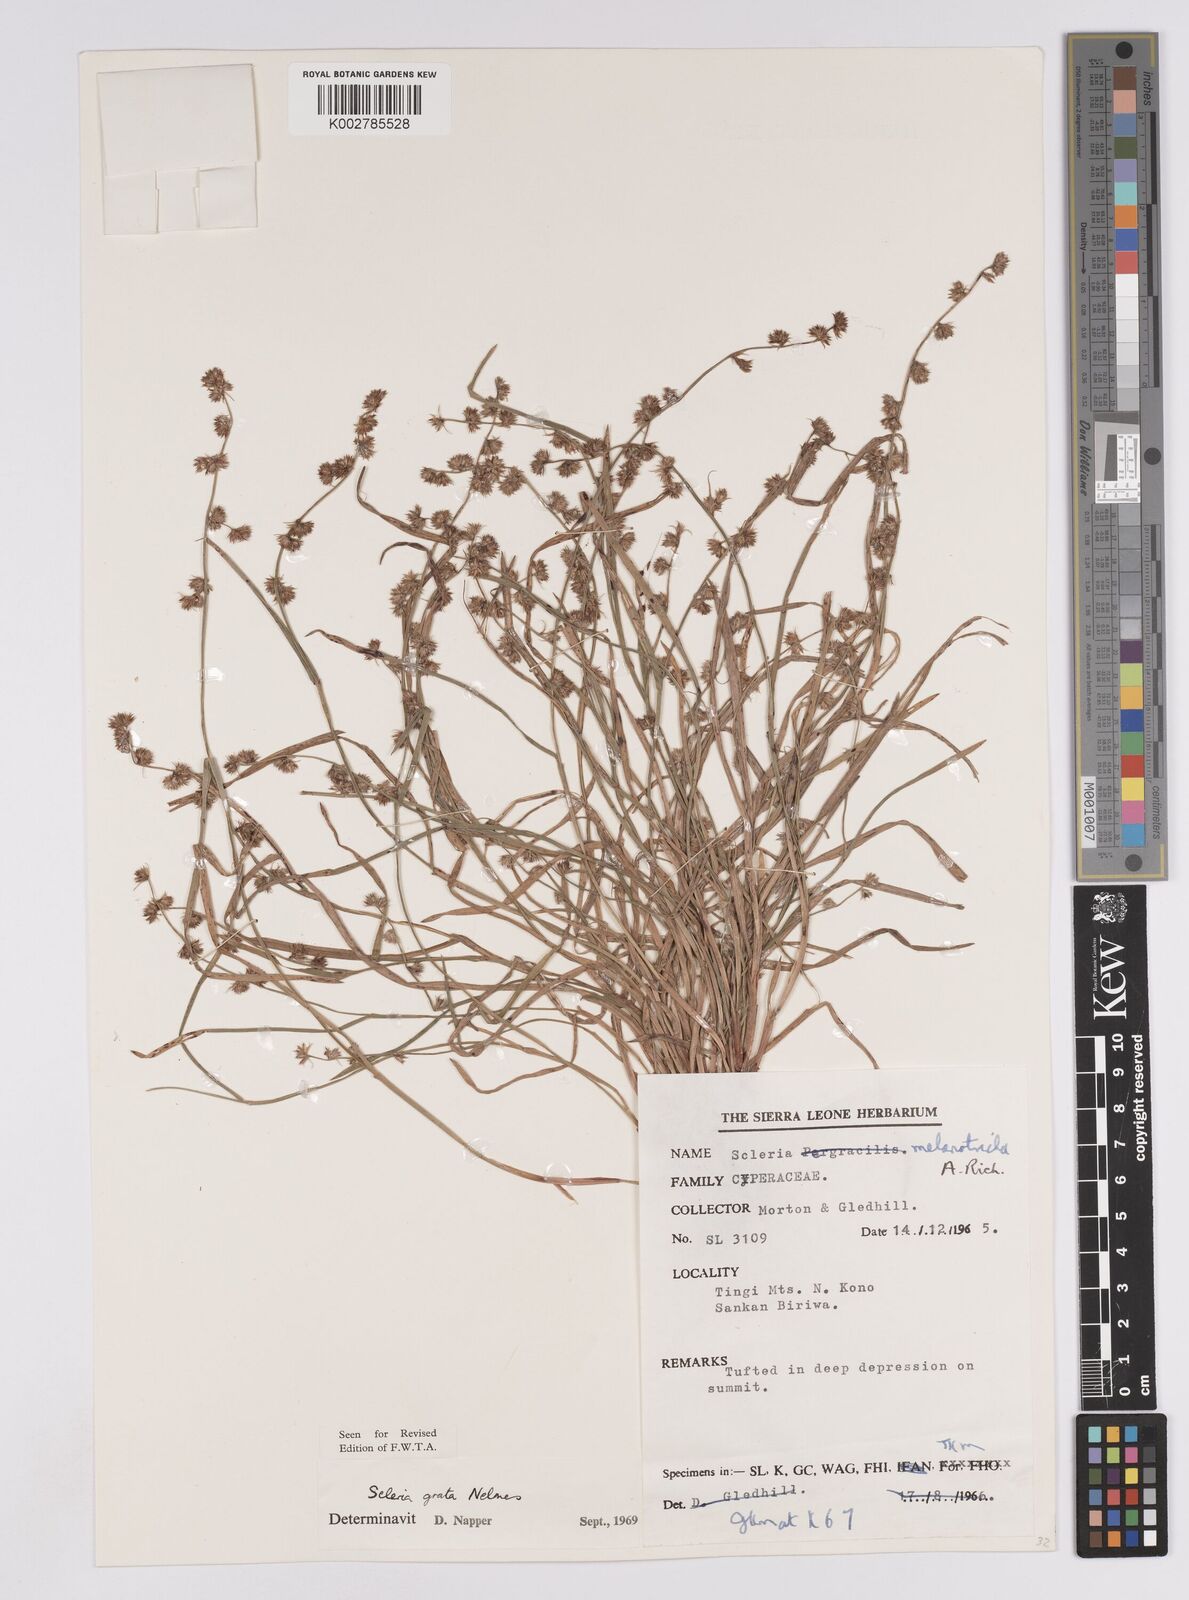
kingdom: Plantae
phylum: Tracheophyta
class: Liliopsida
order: Poales
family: Cyperaceae
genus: Scleria
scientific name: Scleria melanotricha
